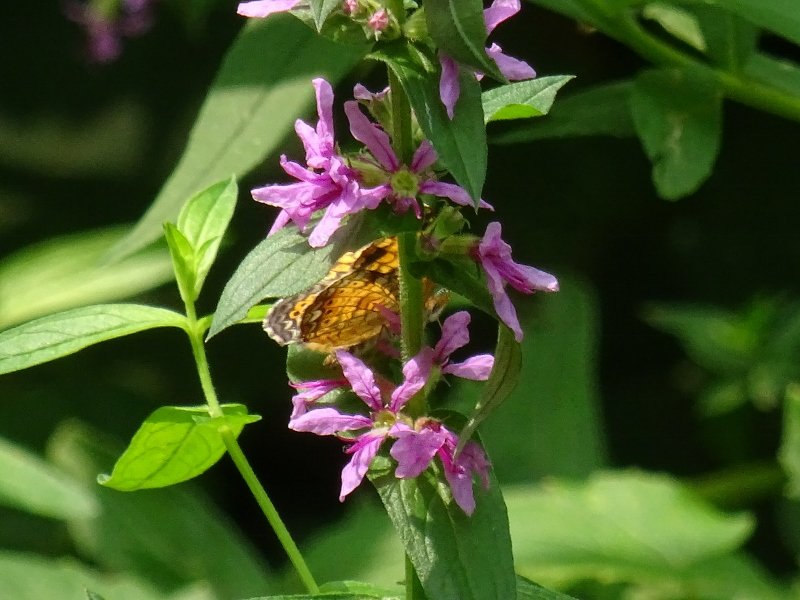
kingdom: Animalia
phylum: Arthropoda
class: Insecta
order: Lepidoptera
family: Nymphalidae
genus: Phyciodes
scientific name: Phyciodes
